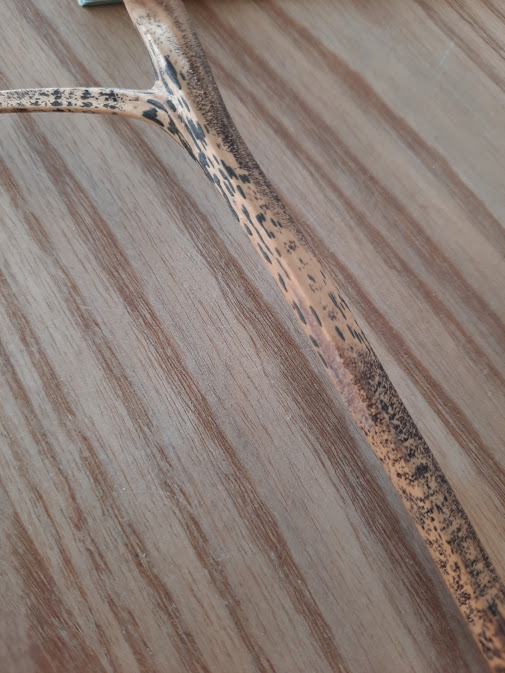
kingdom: Fungi
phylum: Ascomycota
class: Dothideomycetes
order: Pleosporales
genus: Rhopographus
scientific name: Rhopographus filicinus
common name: Bracken map
